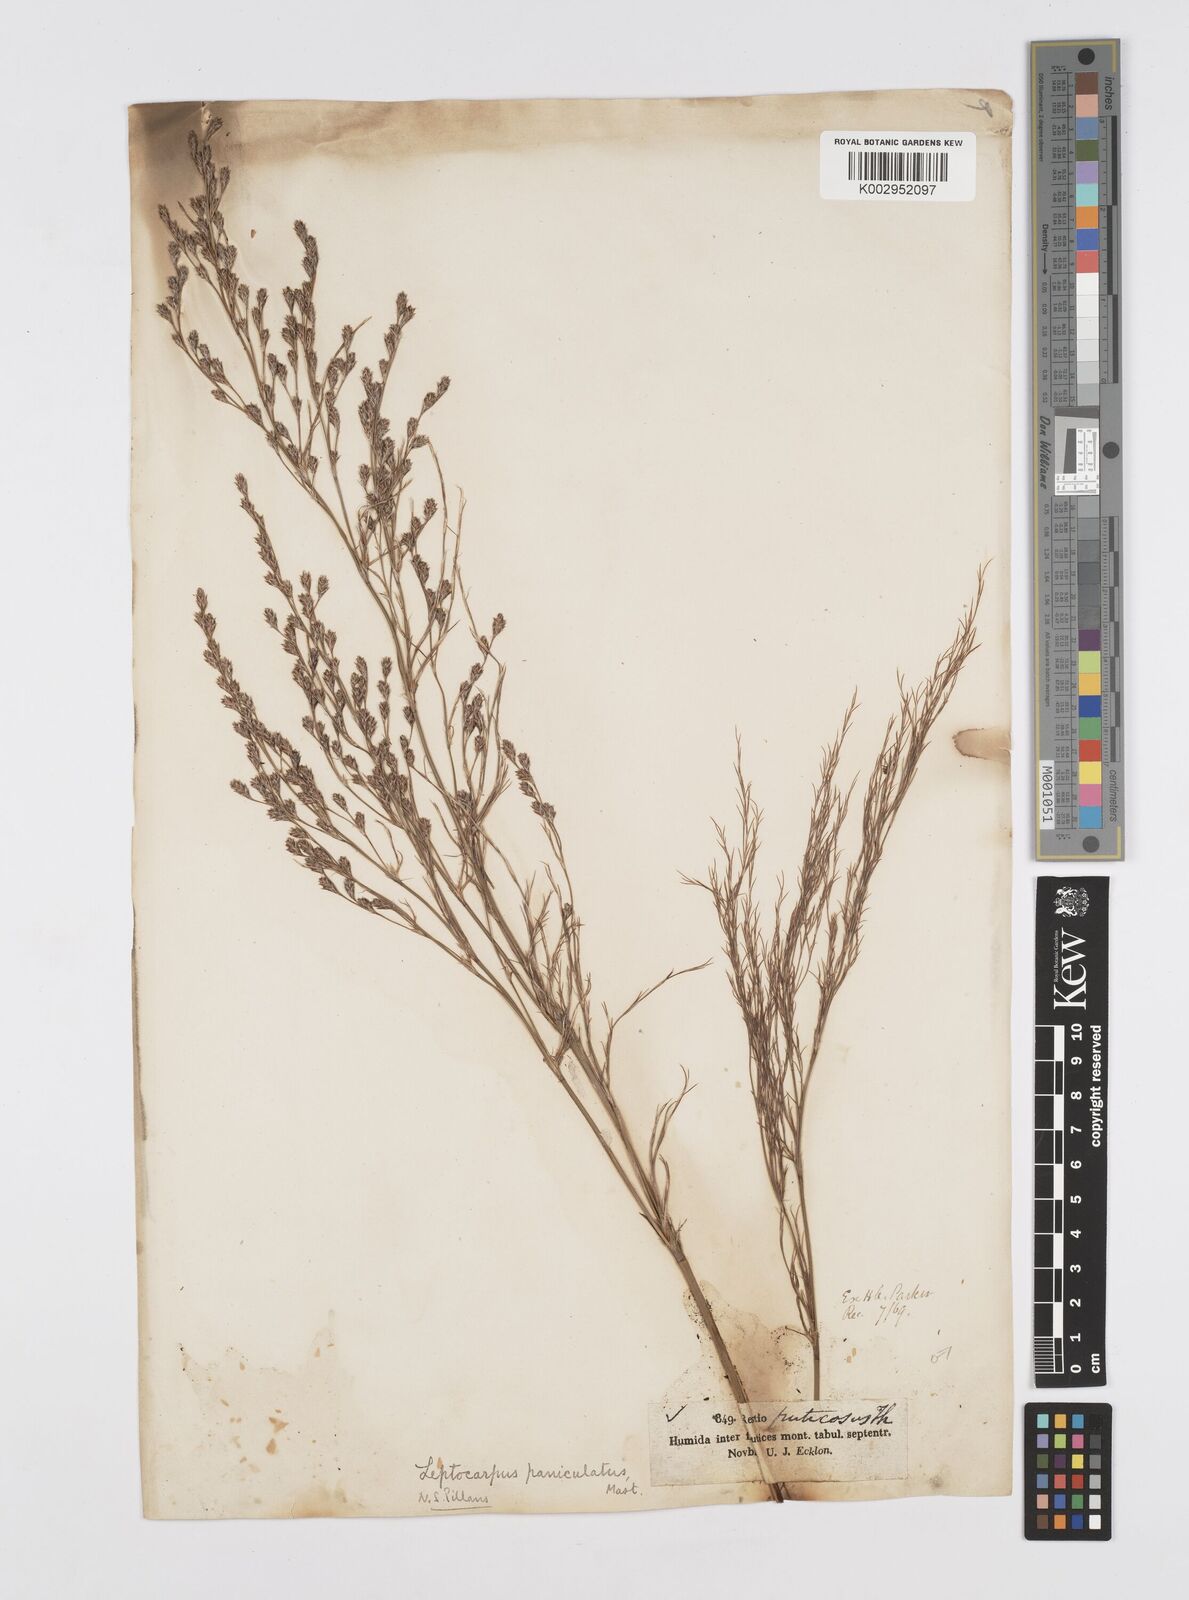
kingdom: Plantae
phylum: Tracheophyta
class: Liliopsida
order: Poales
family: Restionaceae
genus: Restio
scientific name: Restio paniculatus
